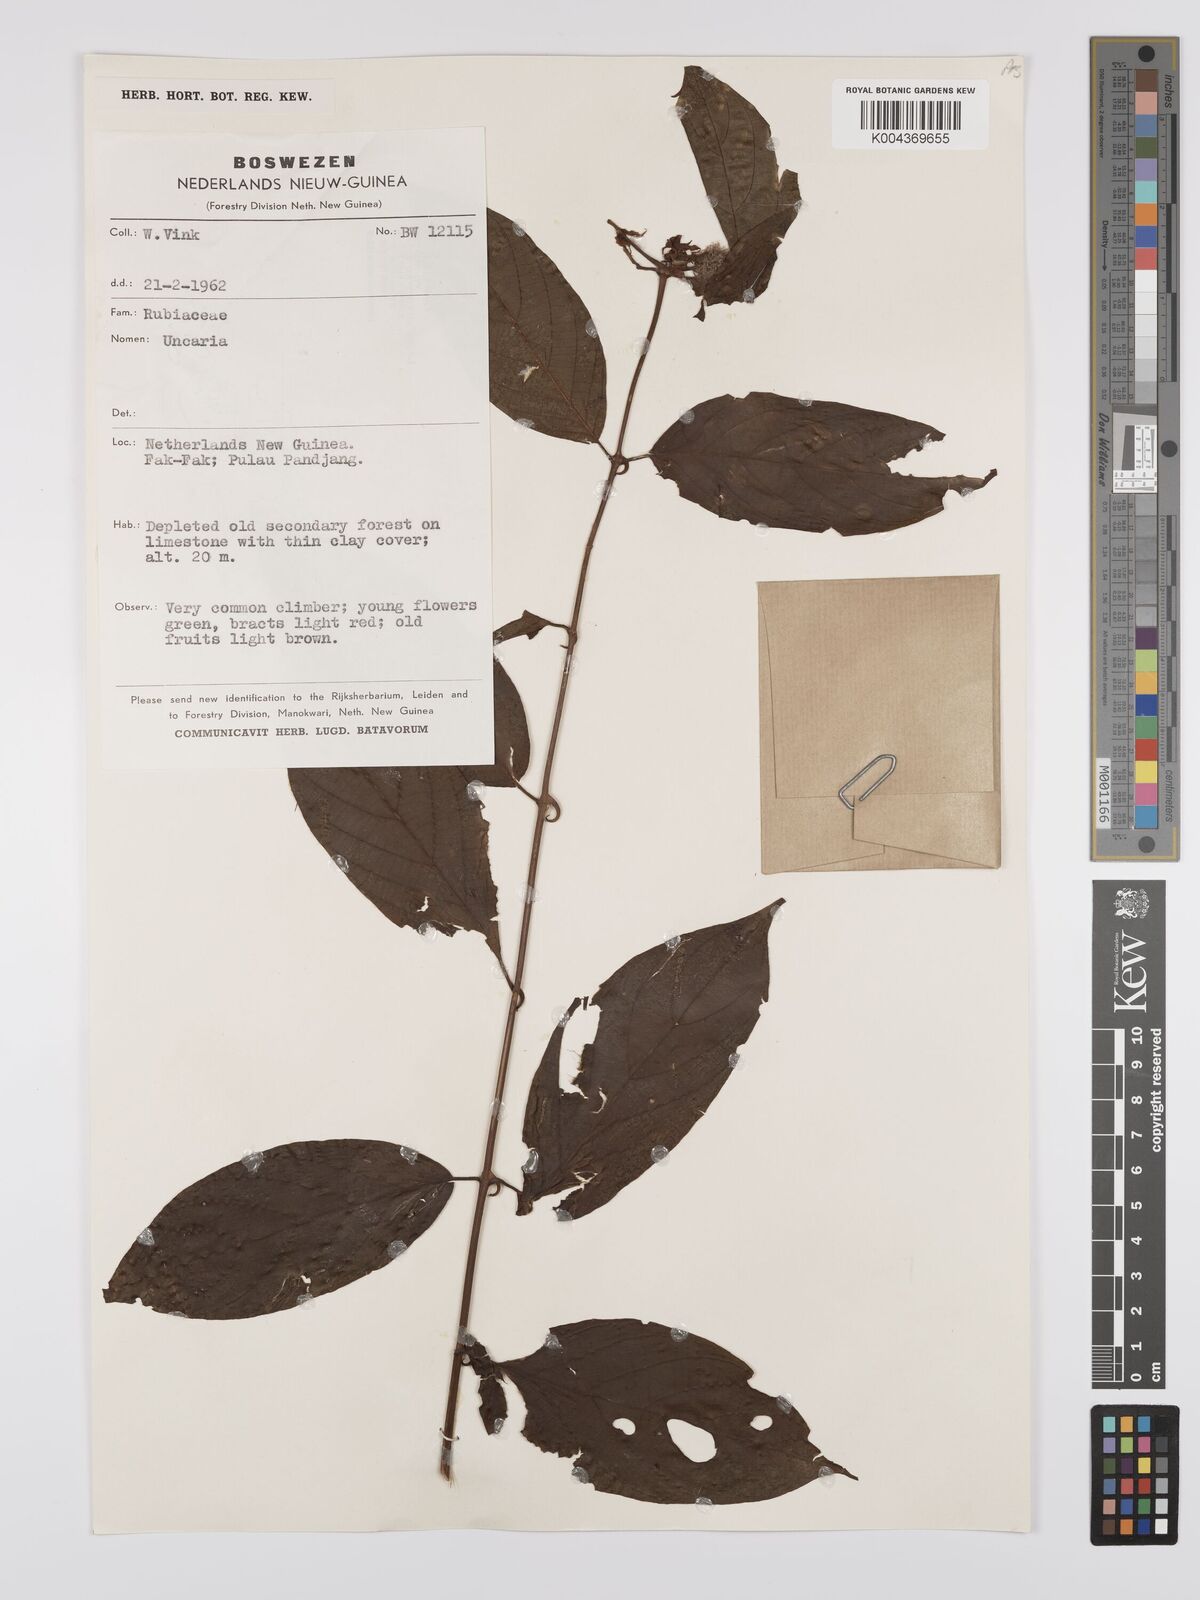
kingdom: Plantae
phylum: Tracheophyta
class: Magnoliopsida
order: Gentianales
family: Rubiaceae
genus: Uncaria
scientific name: Uncaria lanosa
